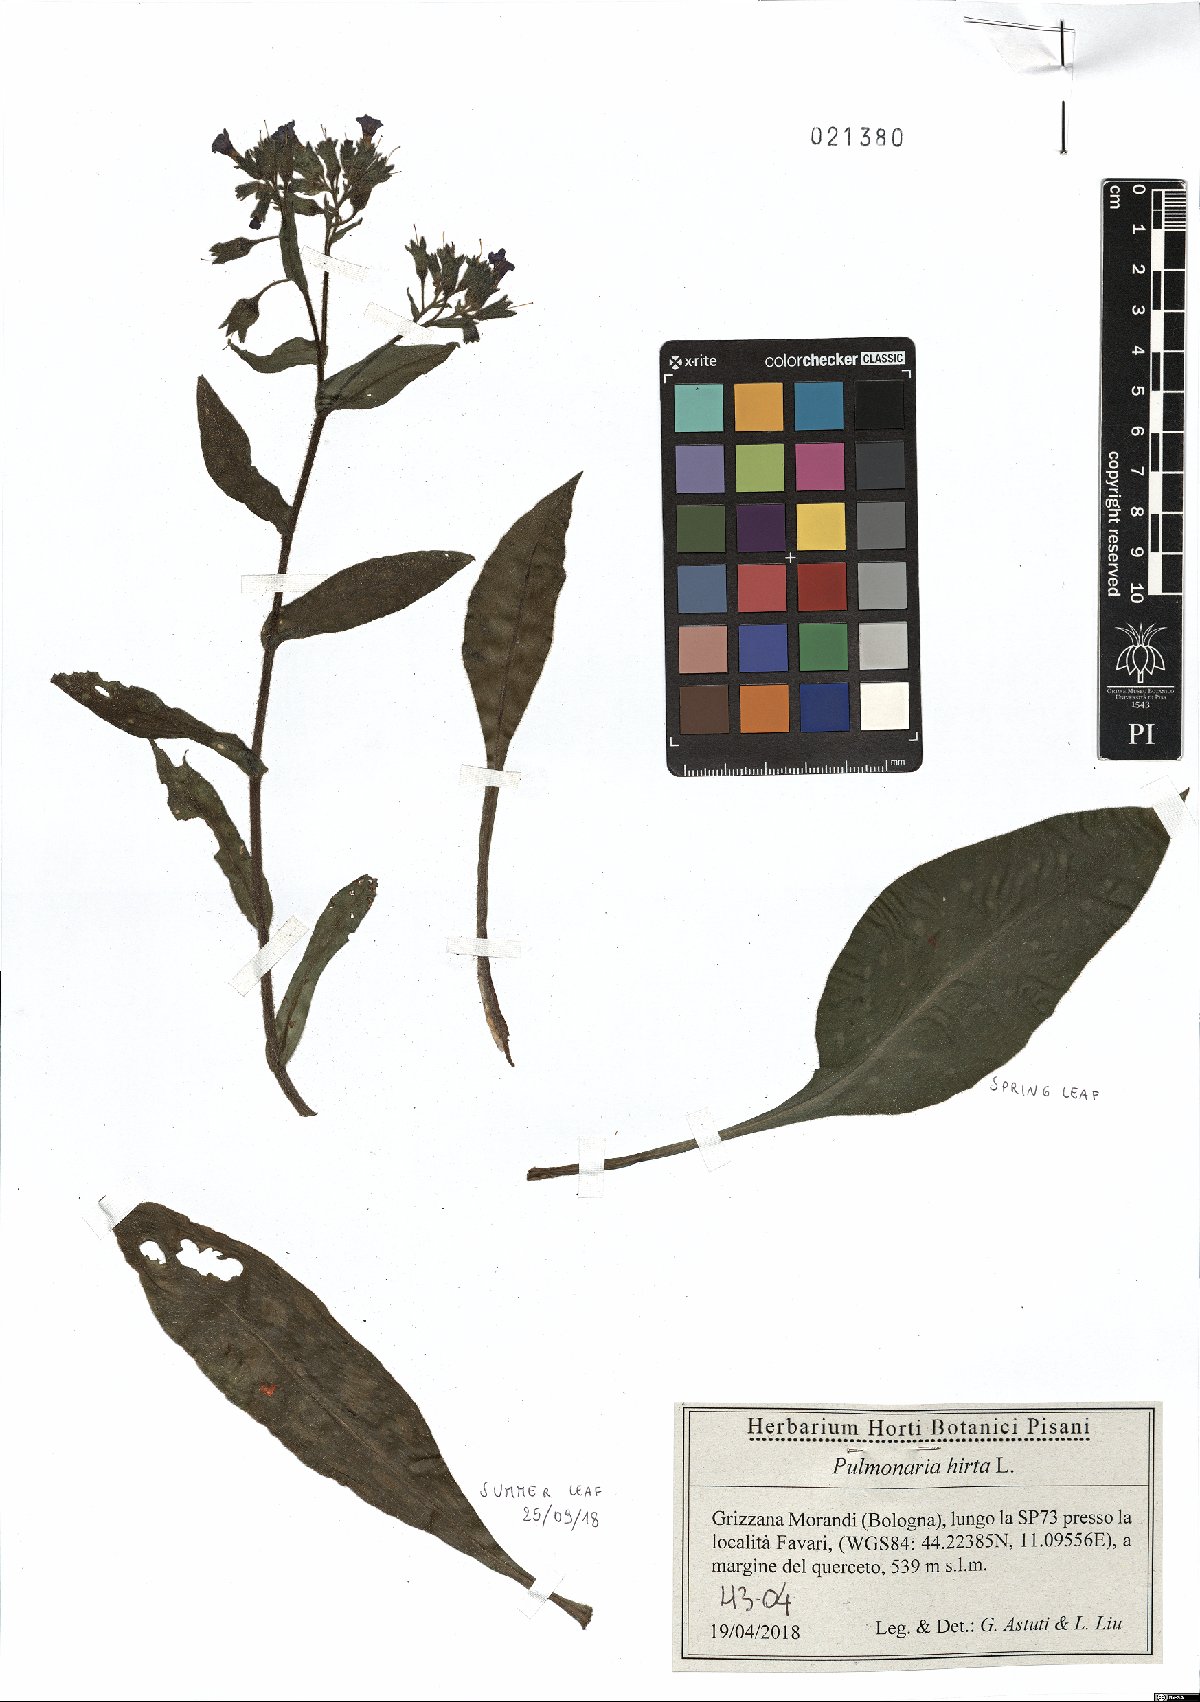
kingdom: Plantae
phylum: Tracheophyta
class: Magnoliopsida
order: Boraginales
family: Boraginaceae
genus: Pulmonaria
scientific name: Pulmonaria hirta
